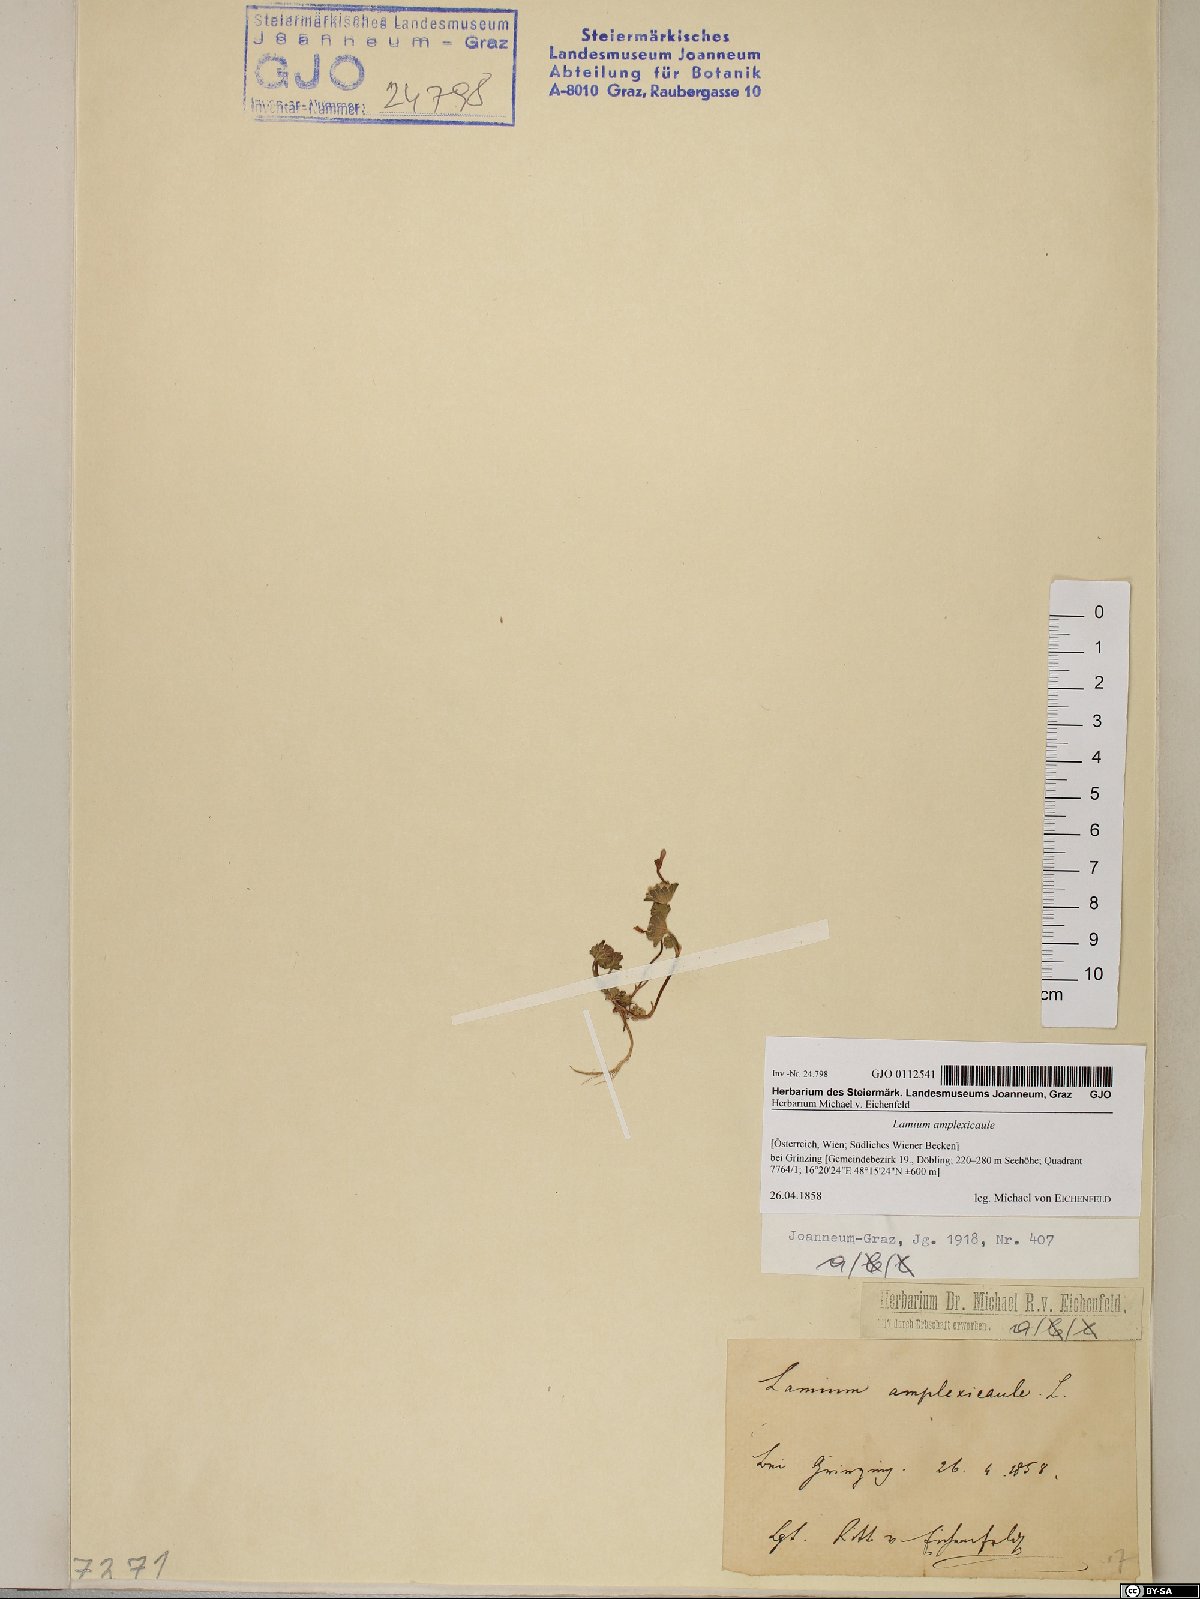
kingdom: Plantae
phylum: Tracheophyta
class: Magnoliopsida
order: Lamiales
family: Lamiaceae
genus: Lamium
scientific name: Lamium amplexicaule
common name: Henbit dead-nettle
